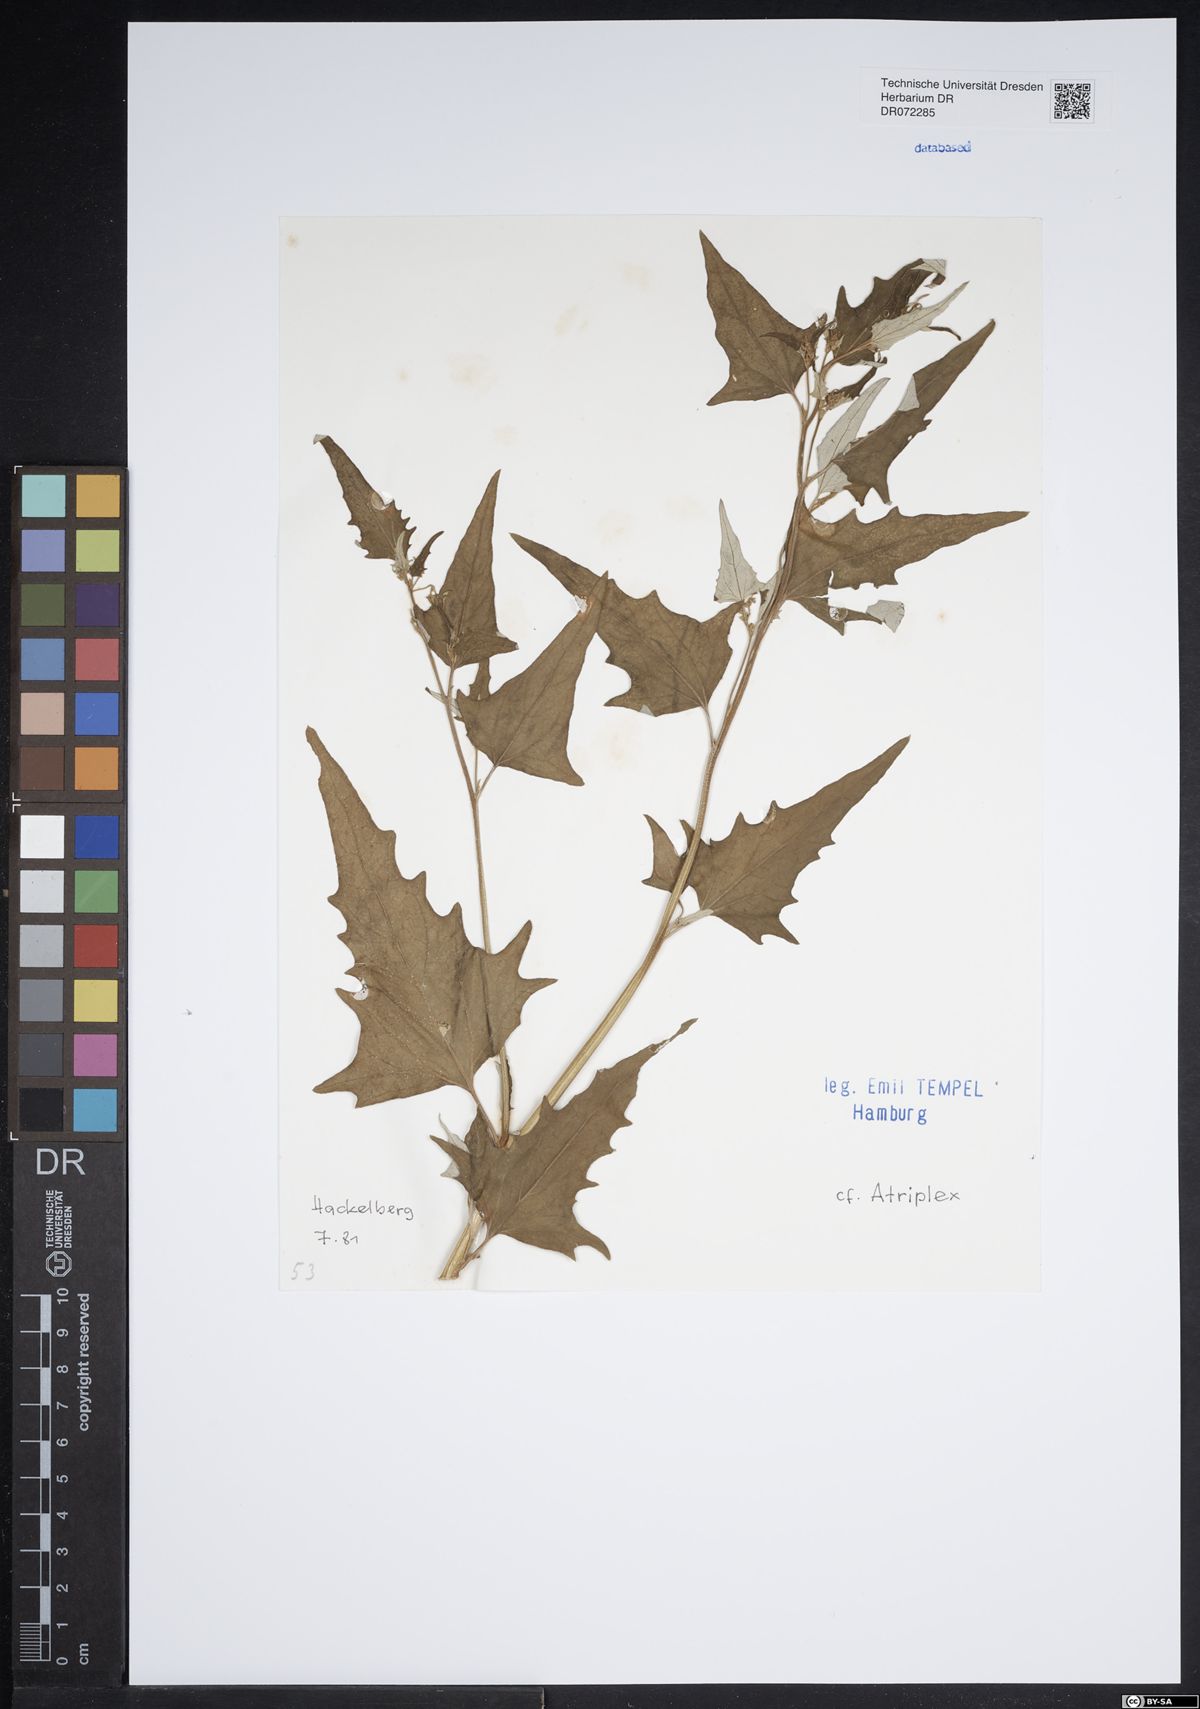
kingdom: Plantae
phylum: Tracheophyta
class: Magnoliopsida
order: Caryophyllales
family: Amaranthaceae
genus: Atriplex
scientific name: Atriplex
